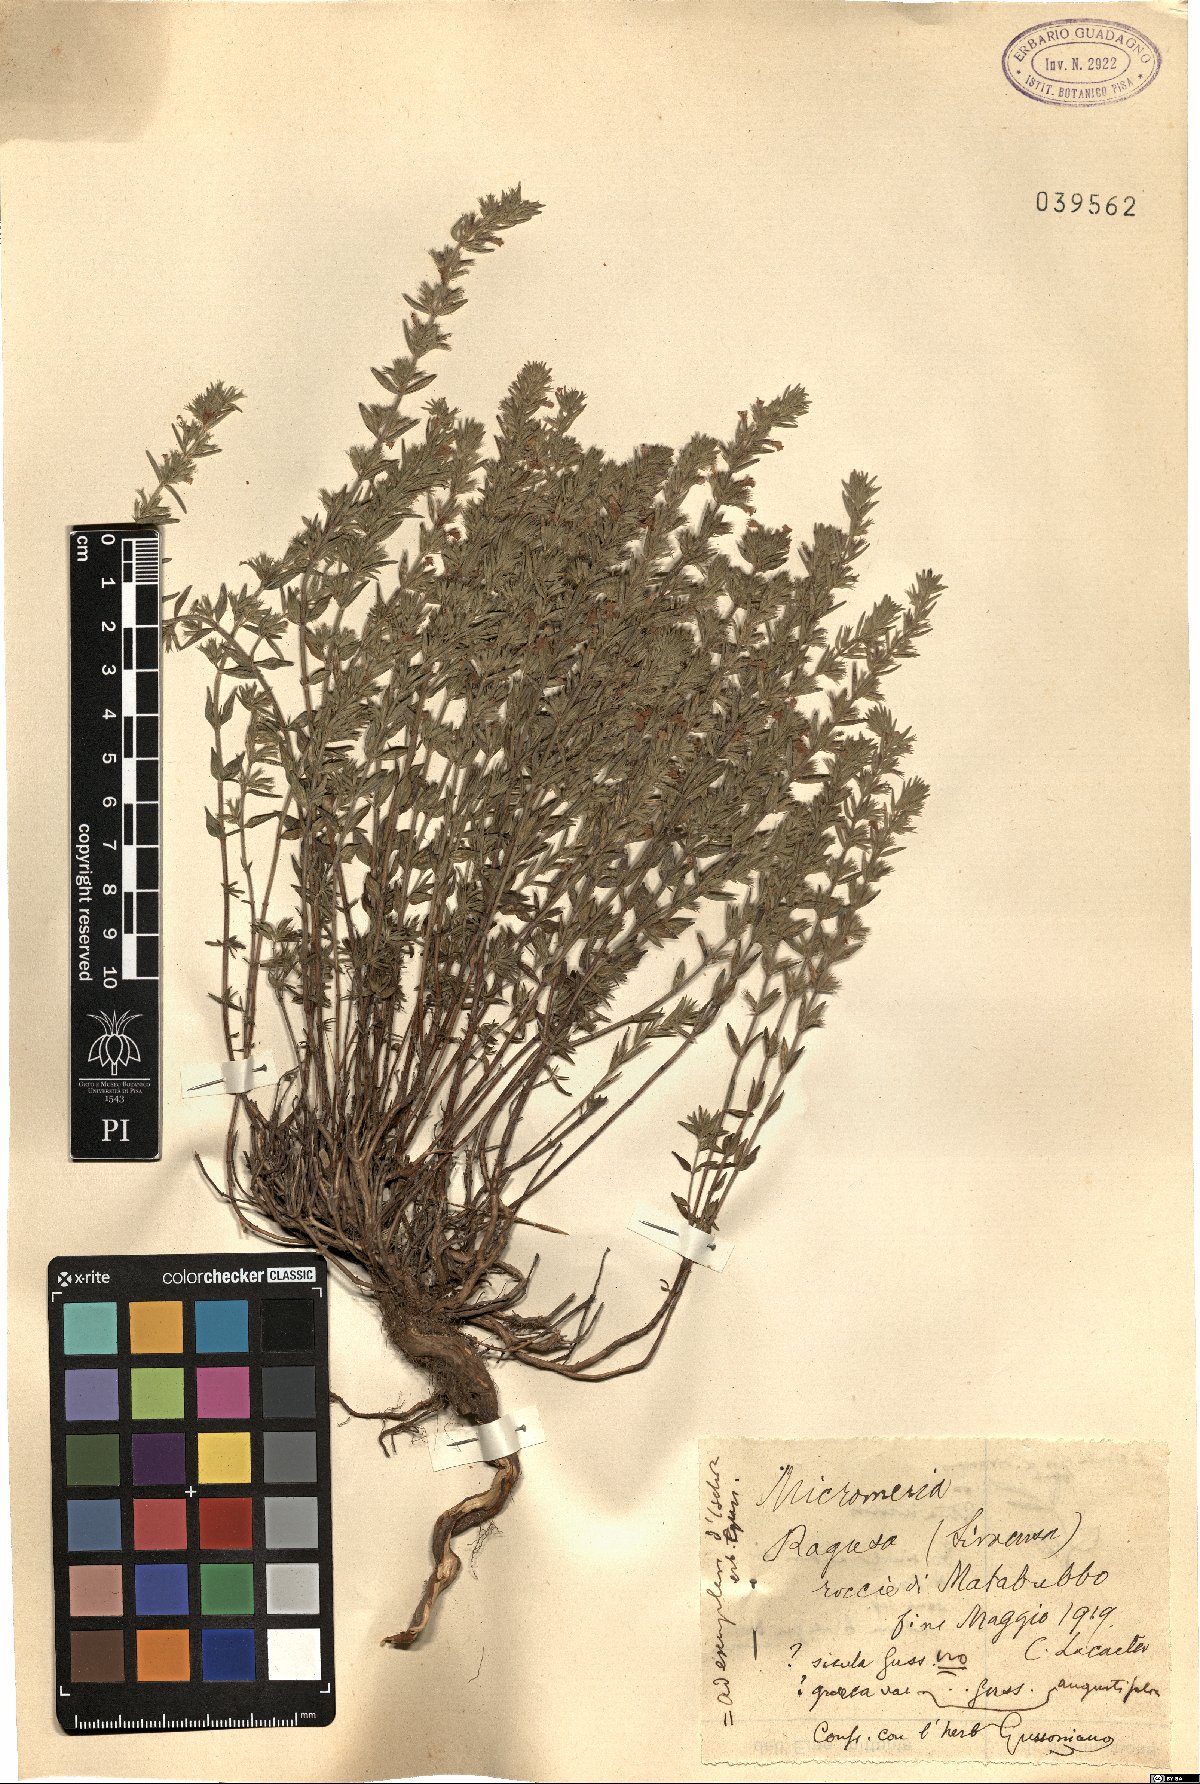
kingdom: Plantae
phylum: Tracheophyta
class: Magnoliopsida
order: Lamiales
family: Lamiaceae
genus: Micromeria
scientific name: Micromeria graeca
